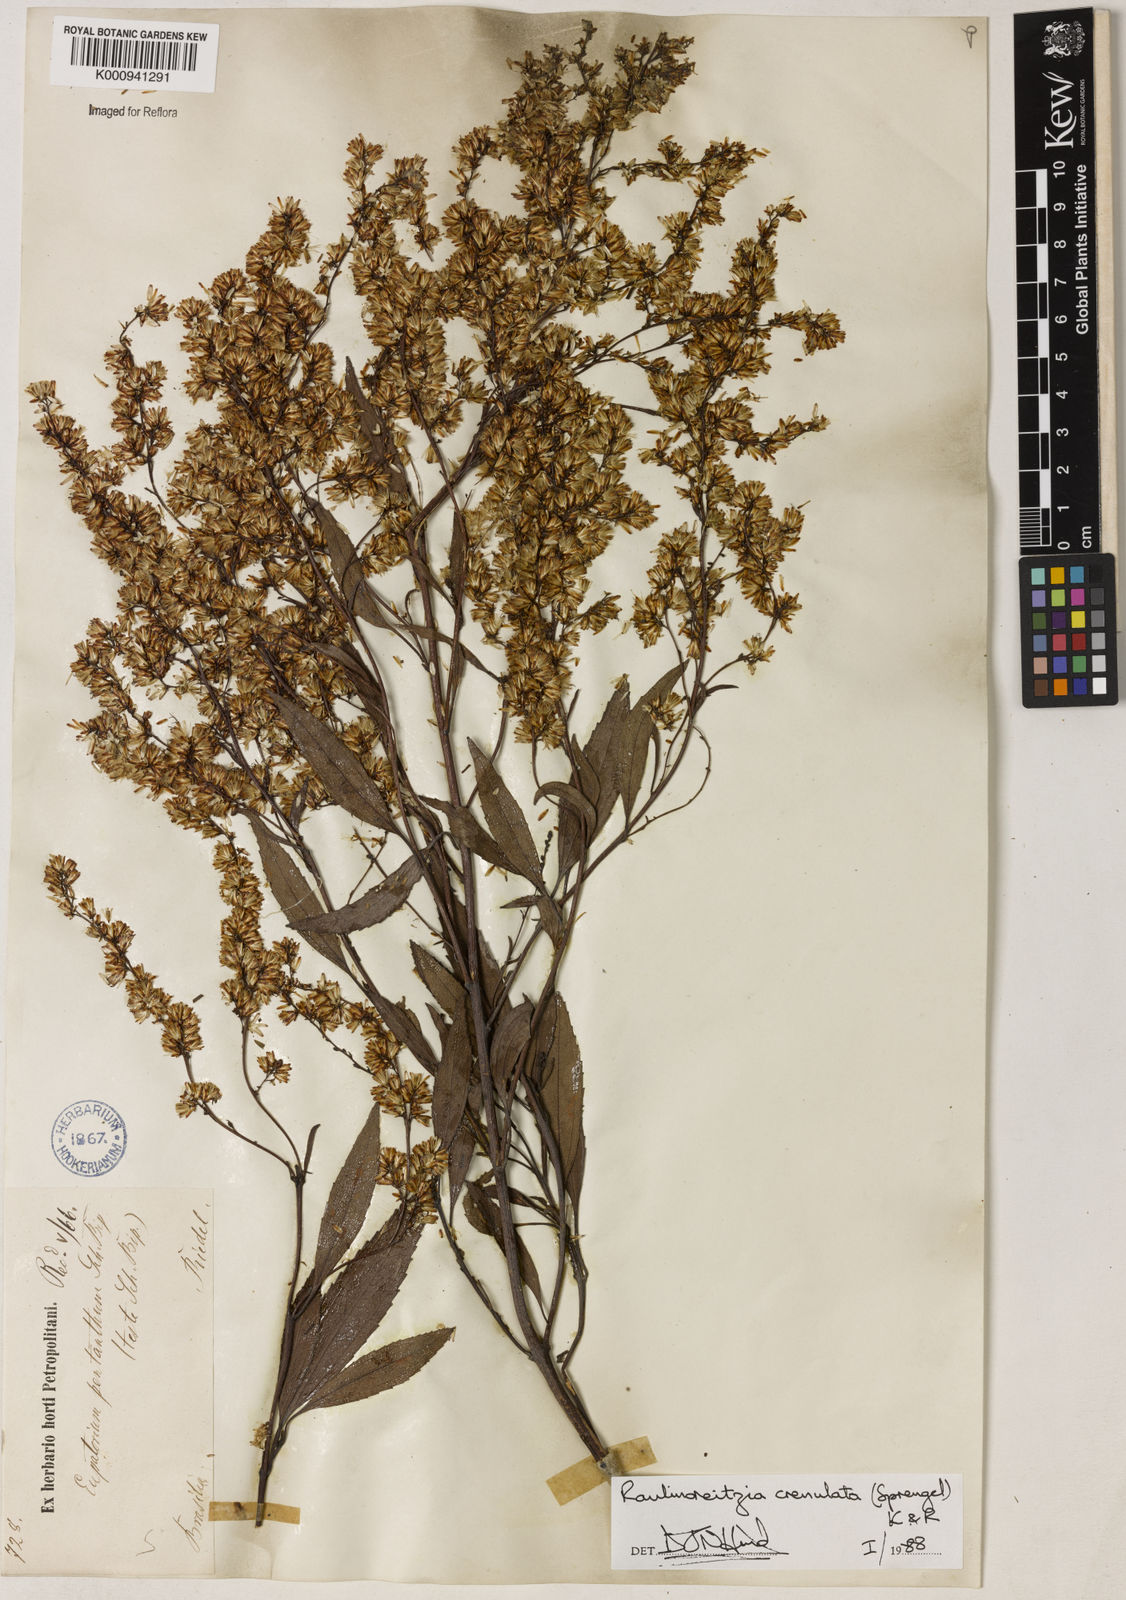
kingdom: Plantae
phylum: Tracheophyta
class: Magnoliopsida
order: Asterales
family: Asteraceae
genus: Raulinoreitzia
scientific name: Raulinoreitzia crenulata
